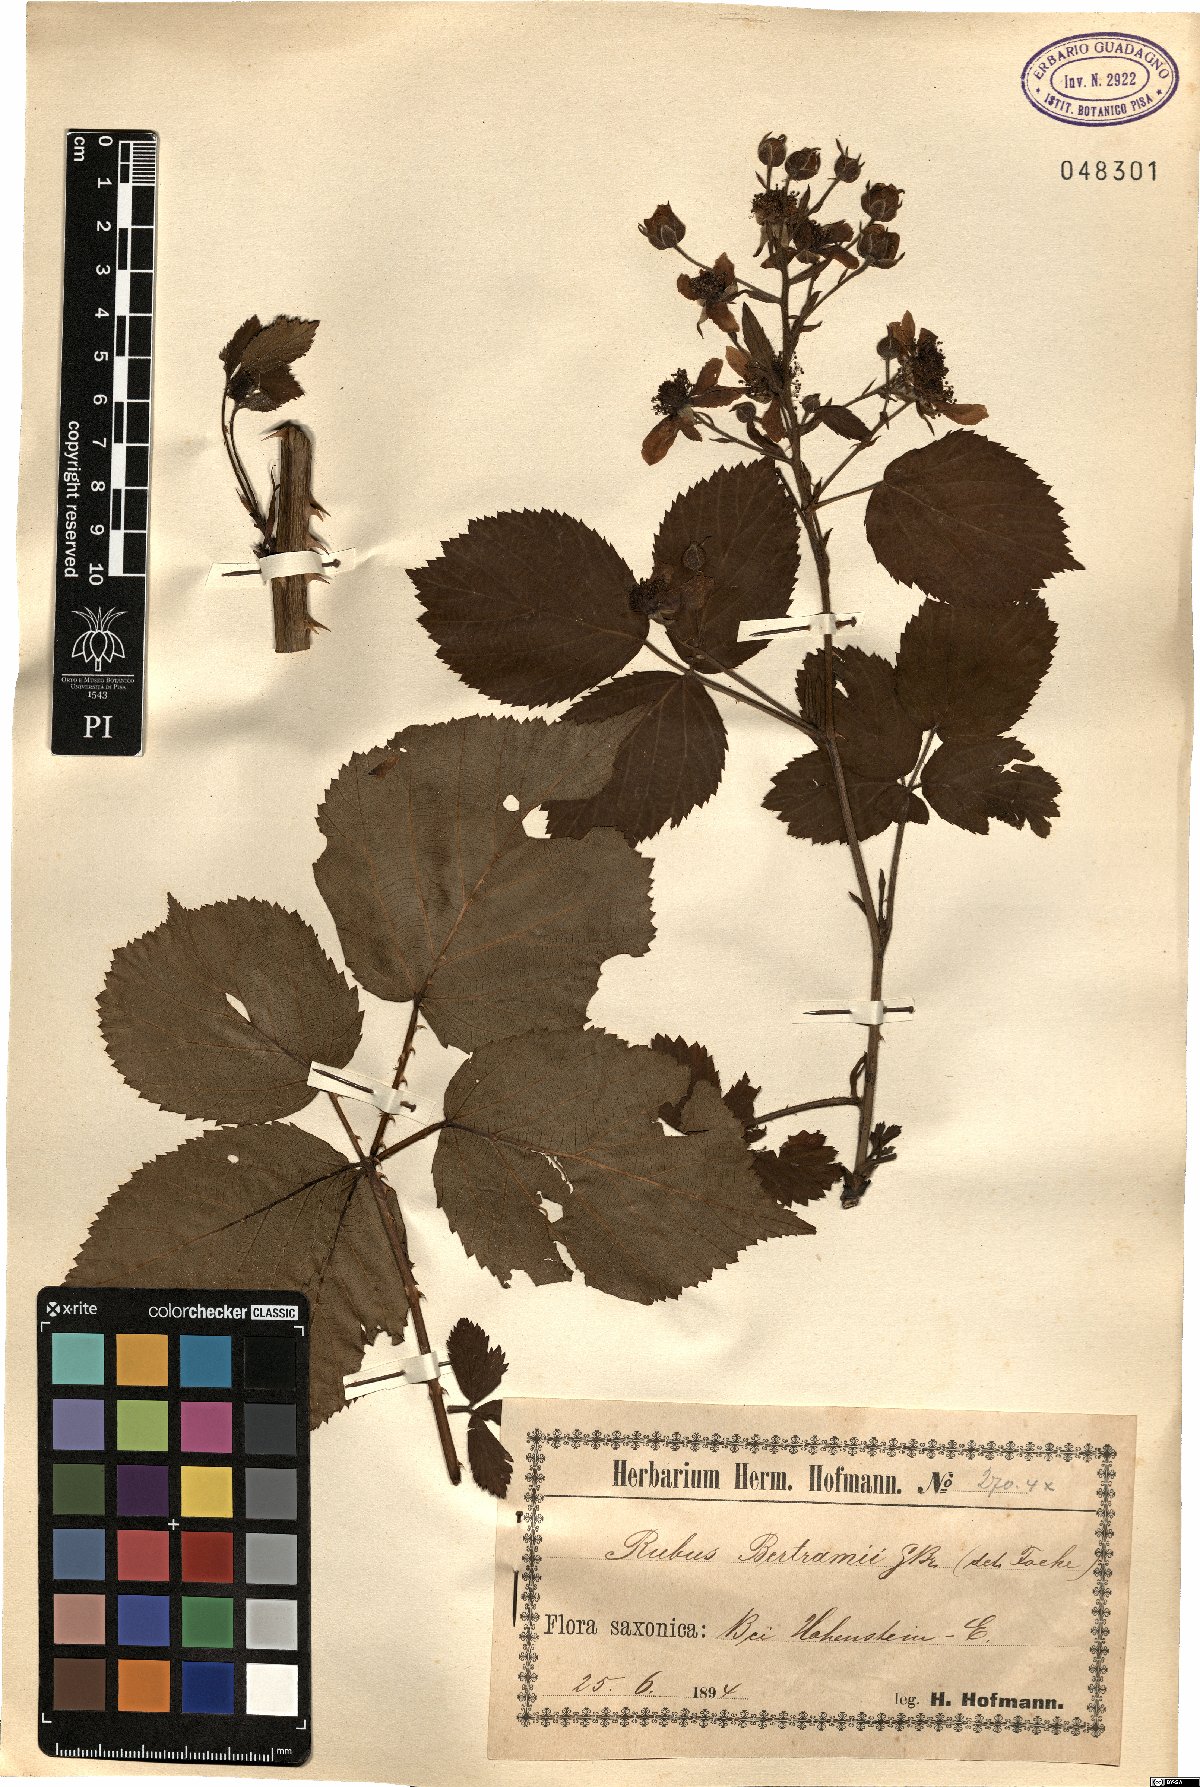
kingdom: Plantae
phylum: Tracheophyta
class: Magnoliopsida
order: Rosales
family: Rosaceae
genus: Rubus
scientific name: Rubus bertramii
